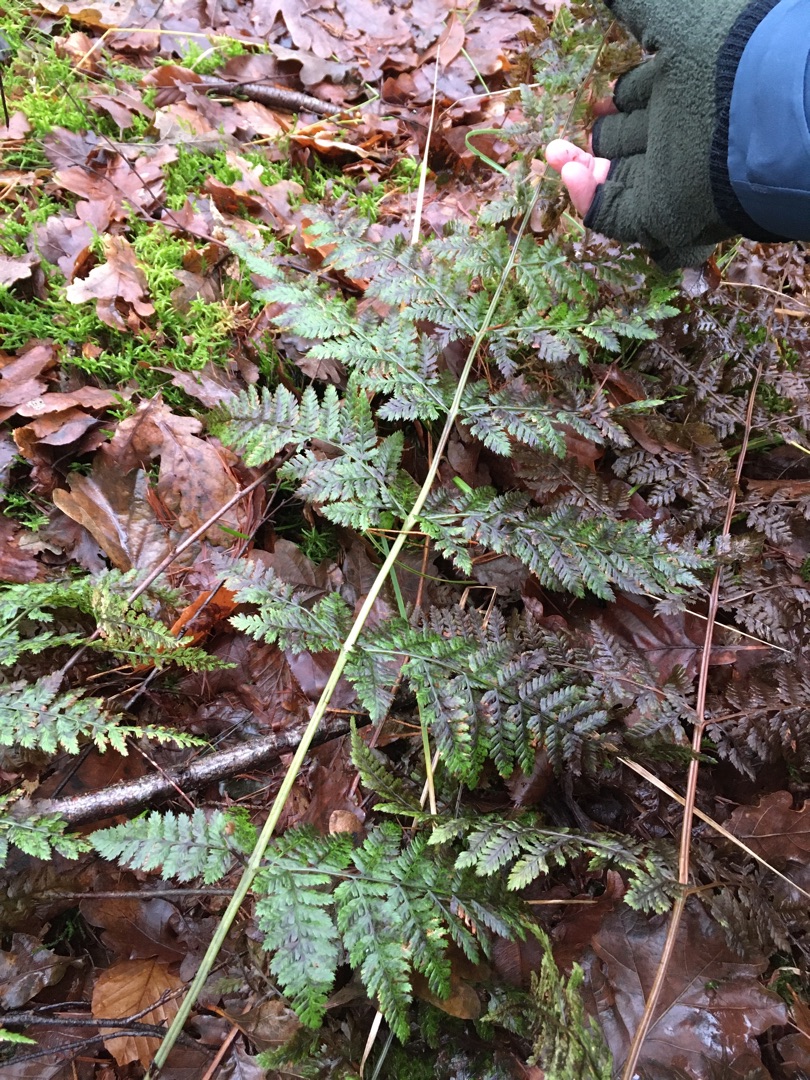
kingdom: Plantae
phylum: Tracheophyta
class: Polypodiopsida
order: Polypodiales
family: Dryopteridaceae
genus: Dryopteris
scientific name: Dryopteris dilatata
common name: Bredbladet mangeløv
